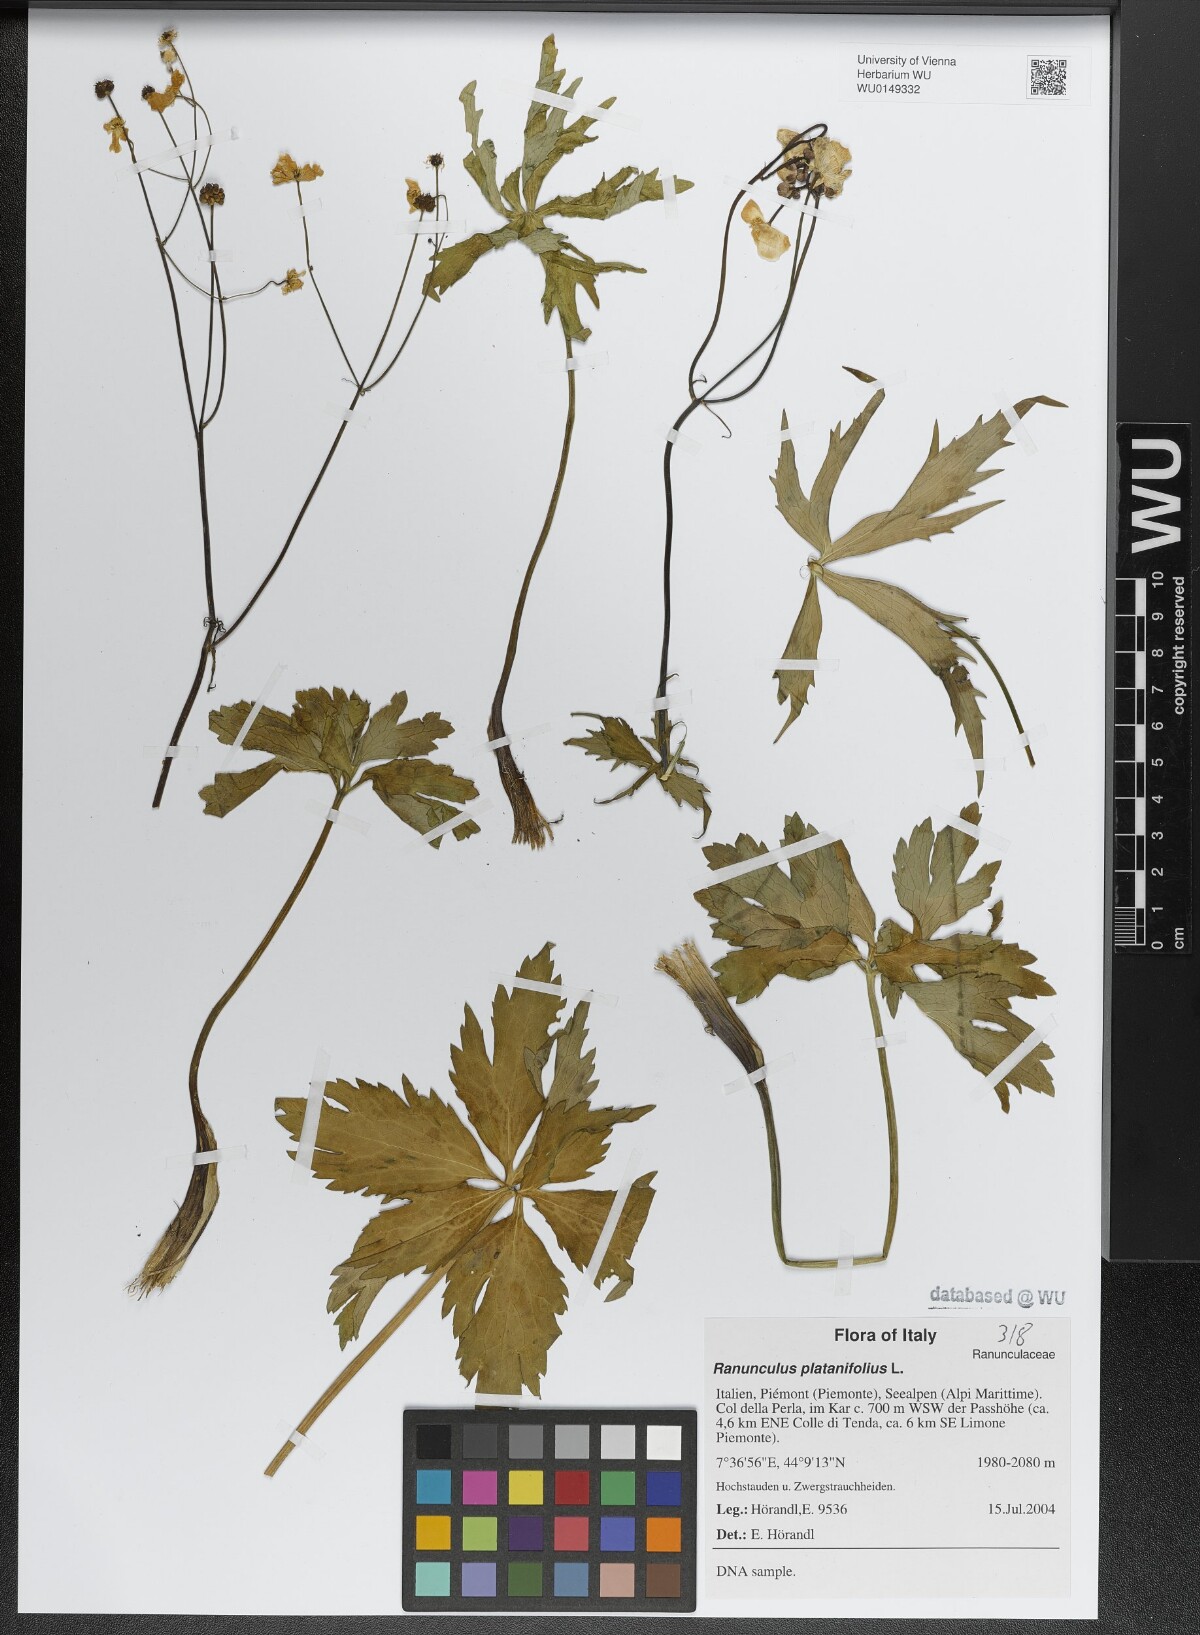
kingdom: Plantae
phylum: Tracheophyta
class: Magnoliopsida
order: Ranunculales
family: Ranunculaceae
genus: Ranunculus
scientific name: Ranunculus platanifolius
